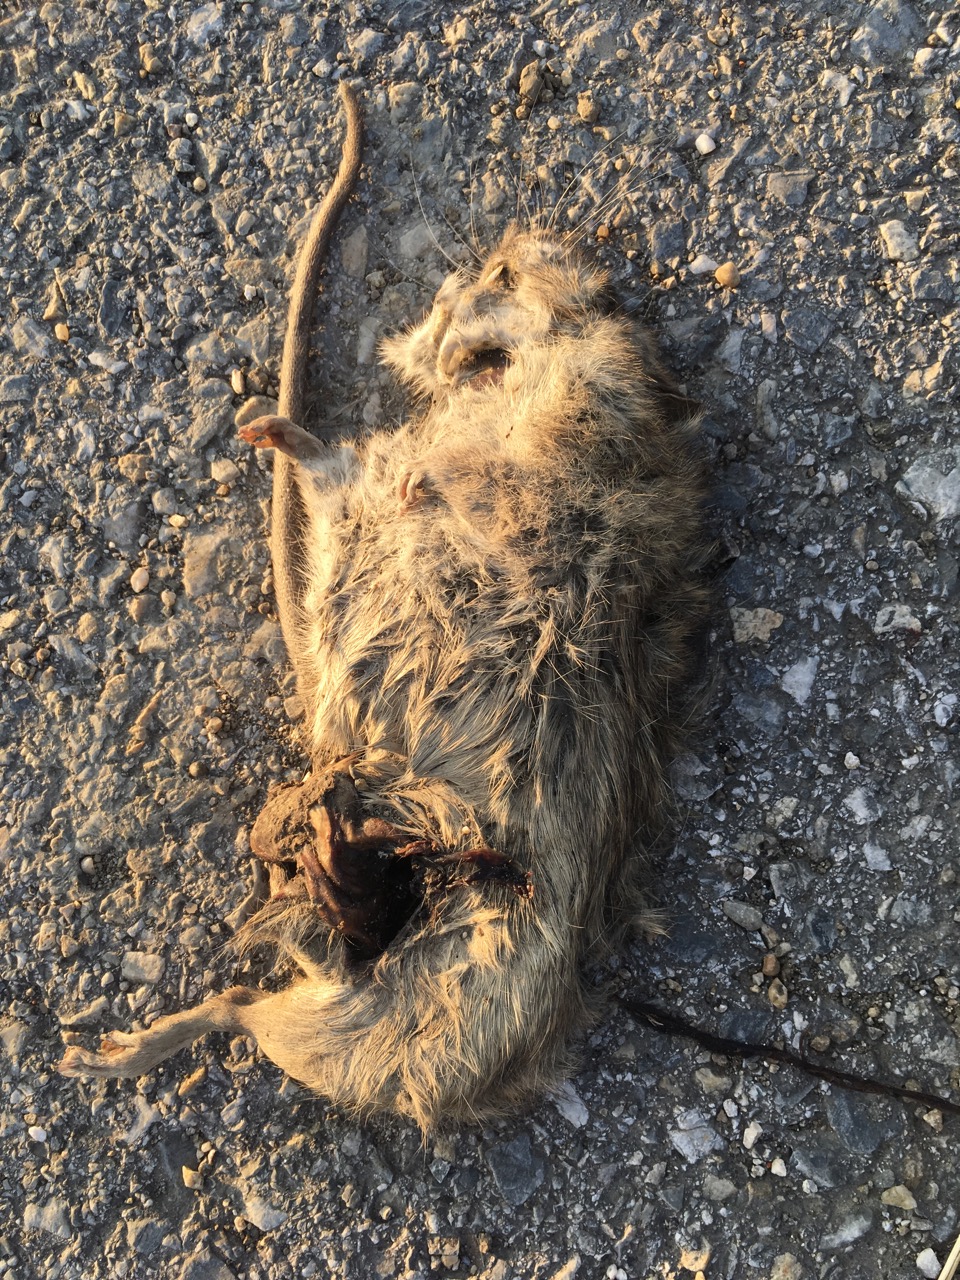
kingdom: Animalia
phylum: Chordata
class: Mammalia
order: Rodentia
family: Muridae
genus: Rattus
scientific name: Rattus norvegicus
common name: Brown rat
